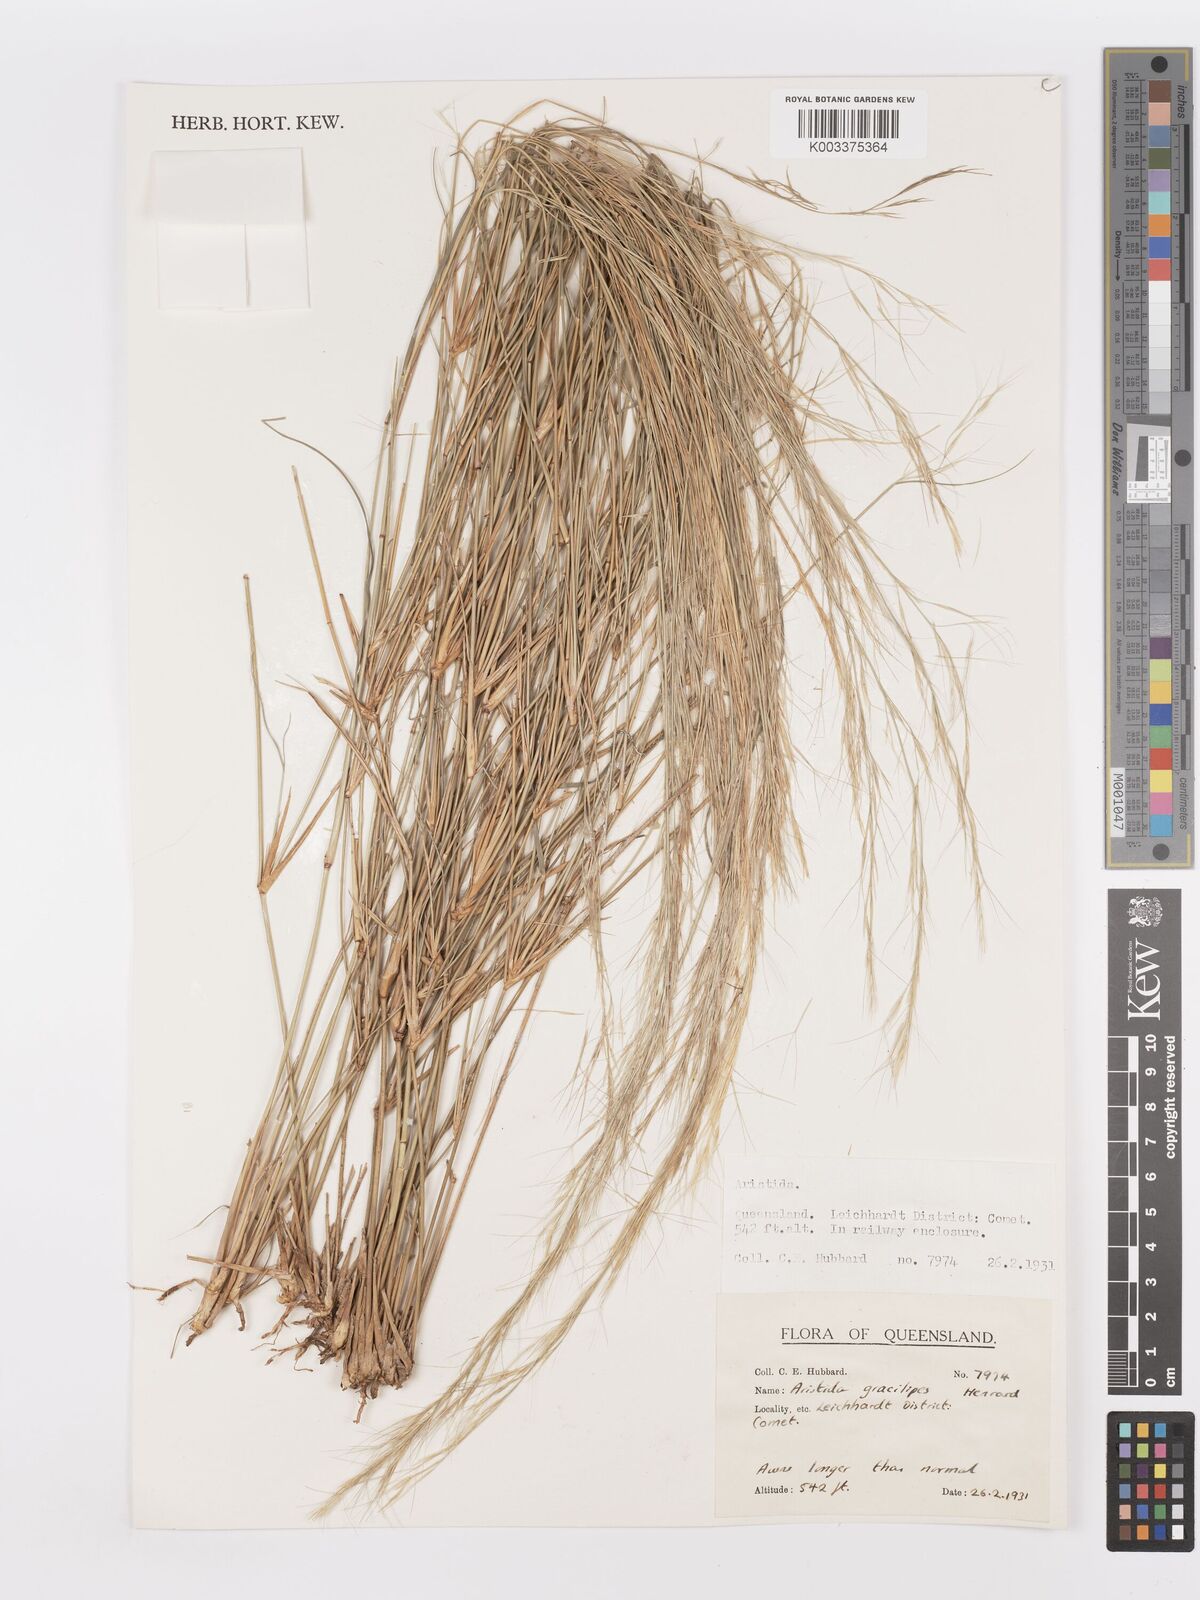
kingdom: Plantae
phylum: Tracheophyta
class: Liliopsida
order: Poales
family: Poaceae
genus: Aristida
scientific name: Aristida gracilipes
